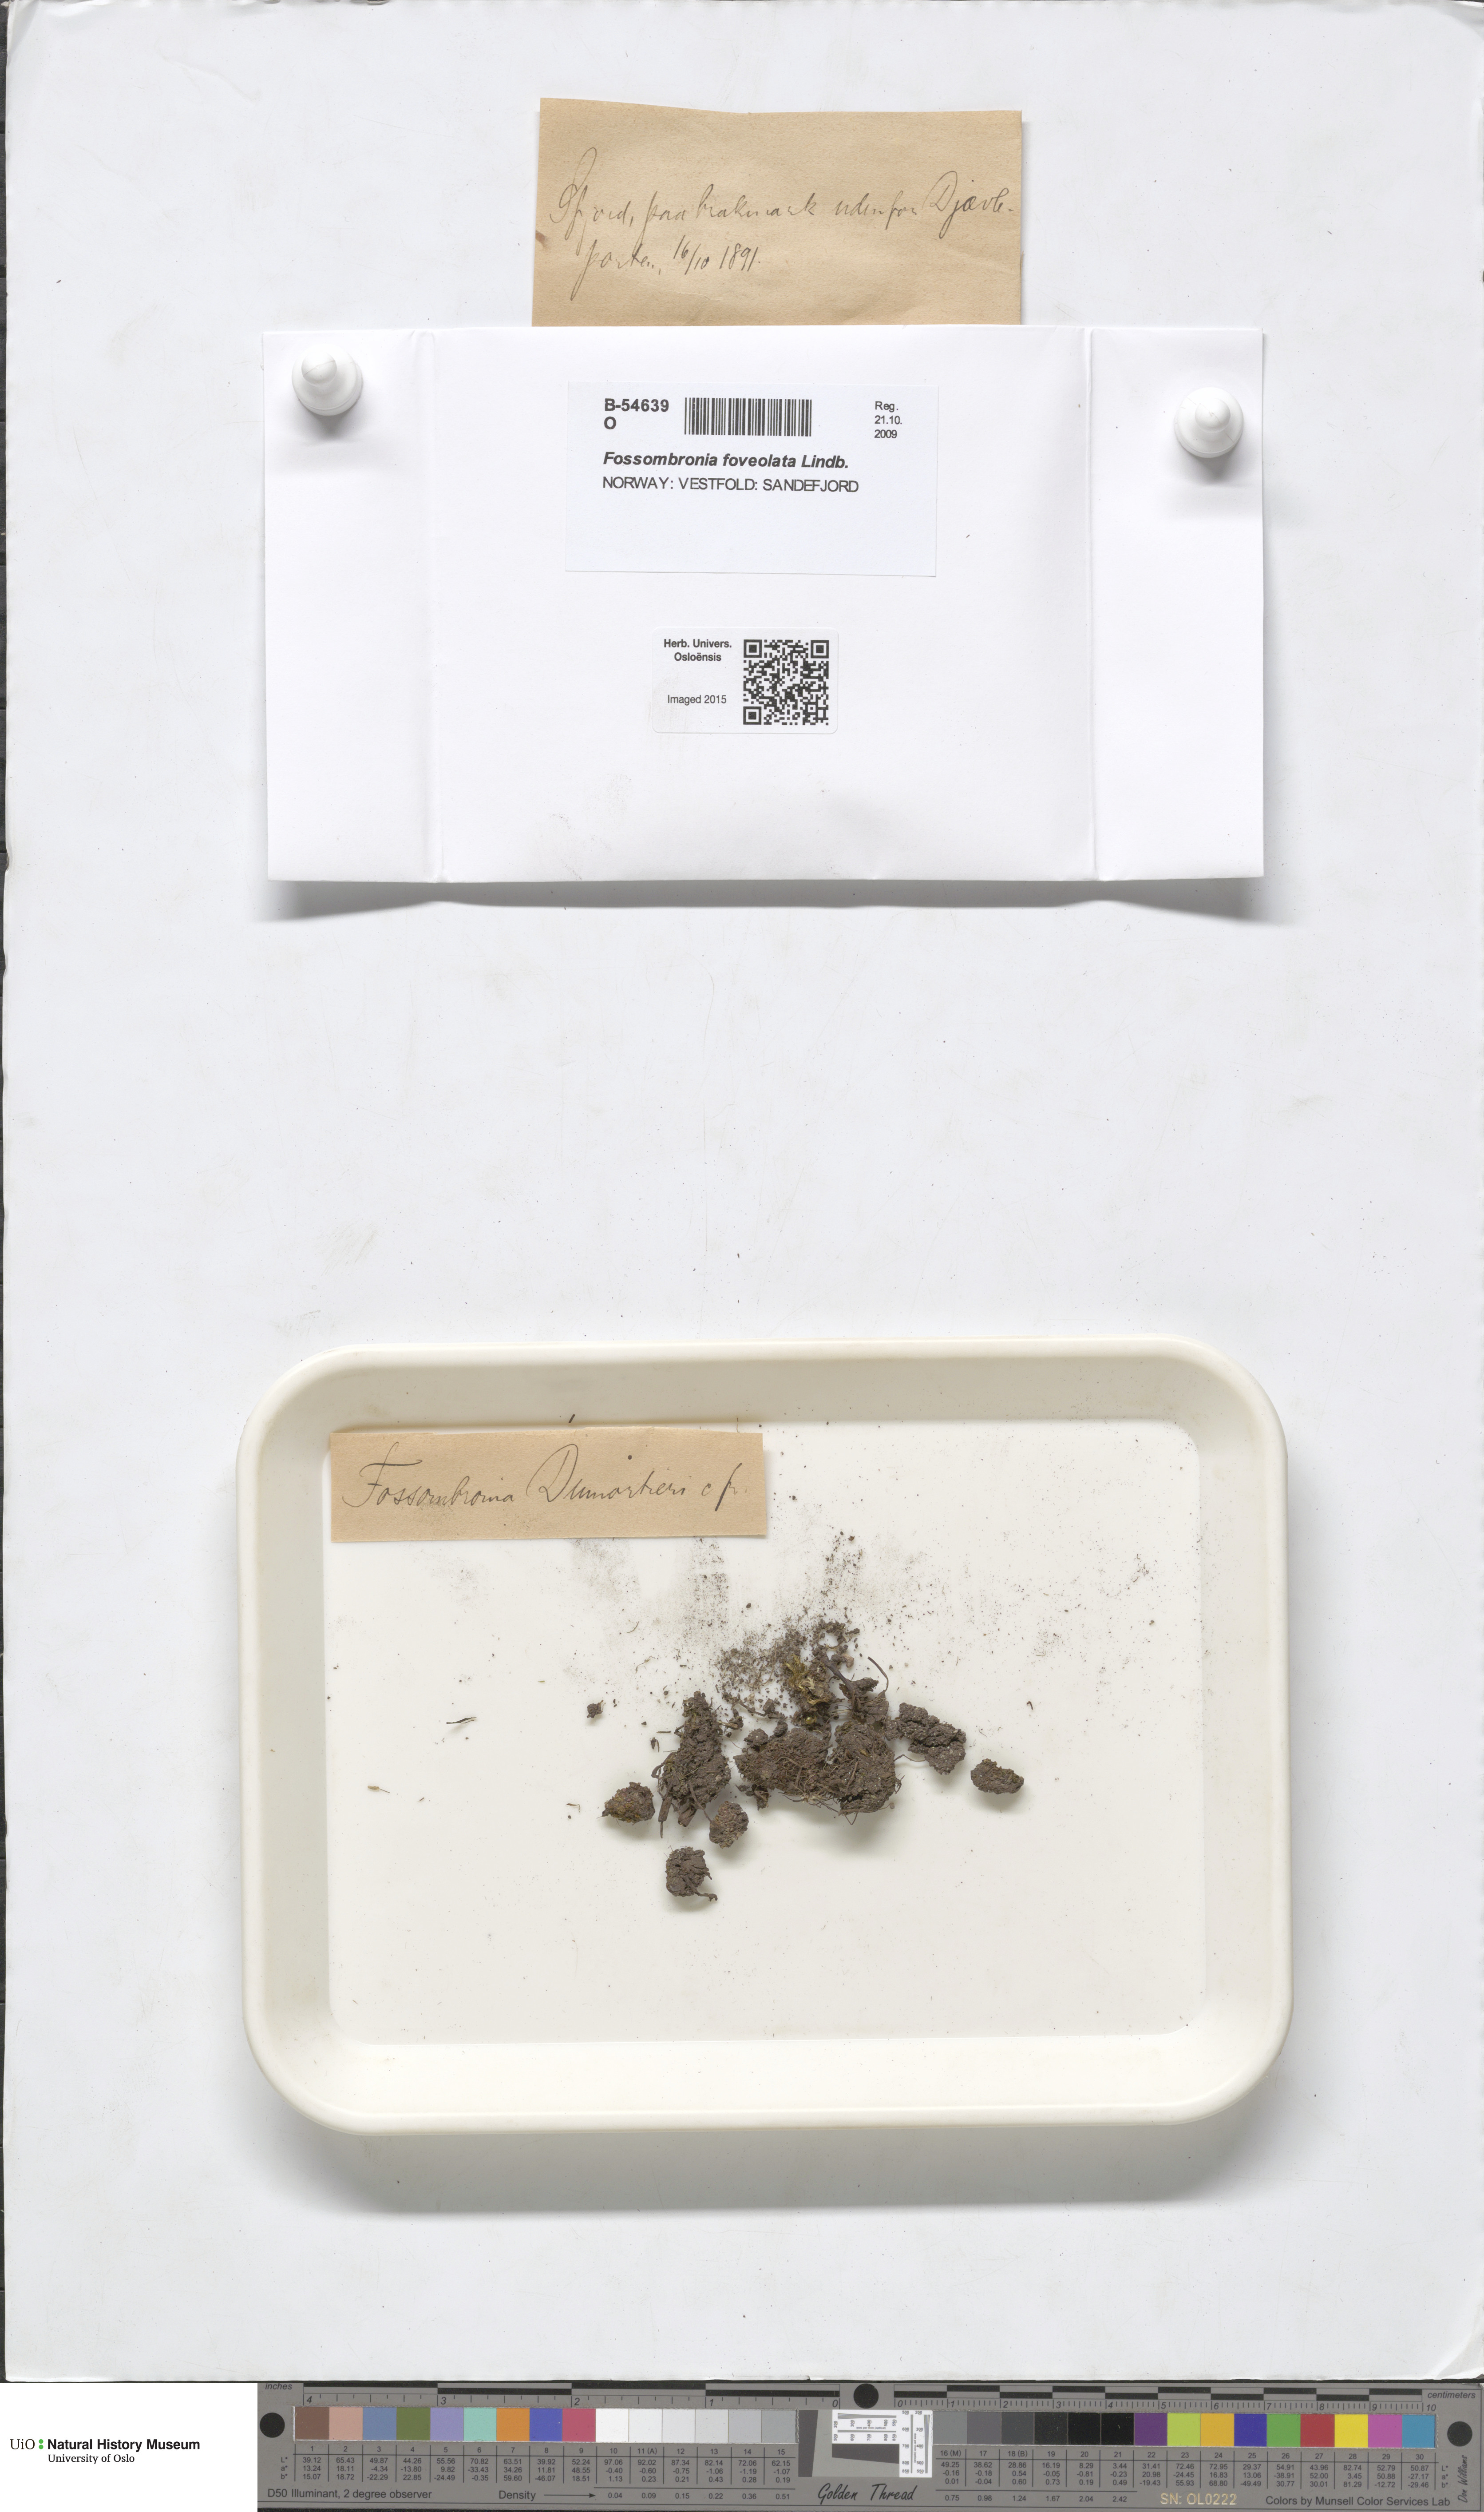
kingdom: Plantae
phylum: Marchantiophyta
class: Jungermanniopsida
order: Fossombroniales
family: Fossombroniaceae
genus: Fossombronia
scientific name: Fossombronia foveolata
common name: Pitted frillwort
